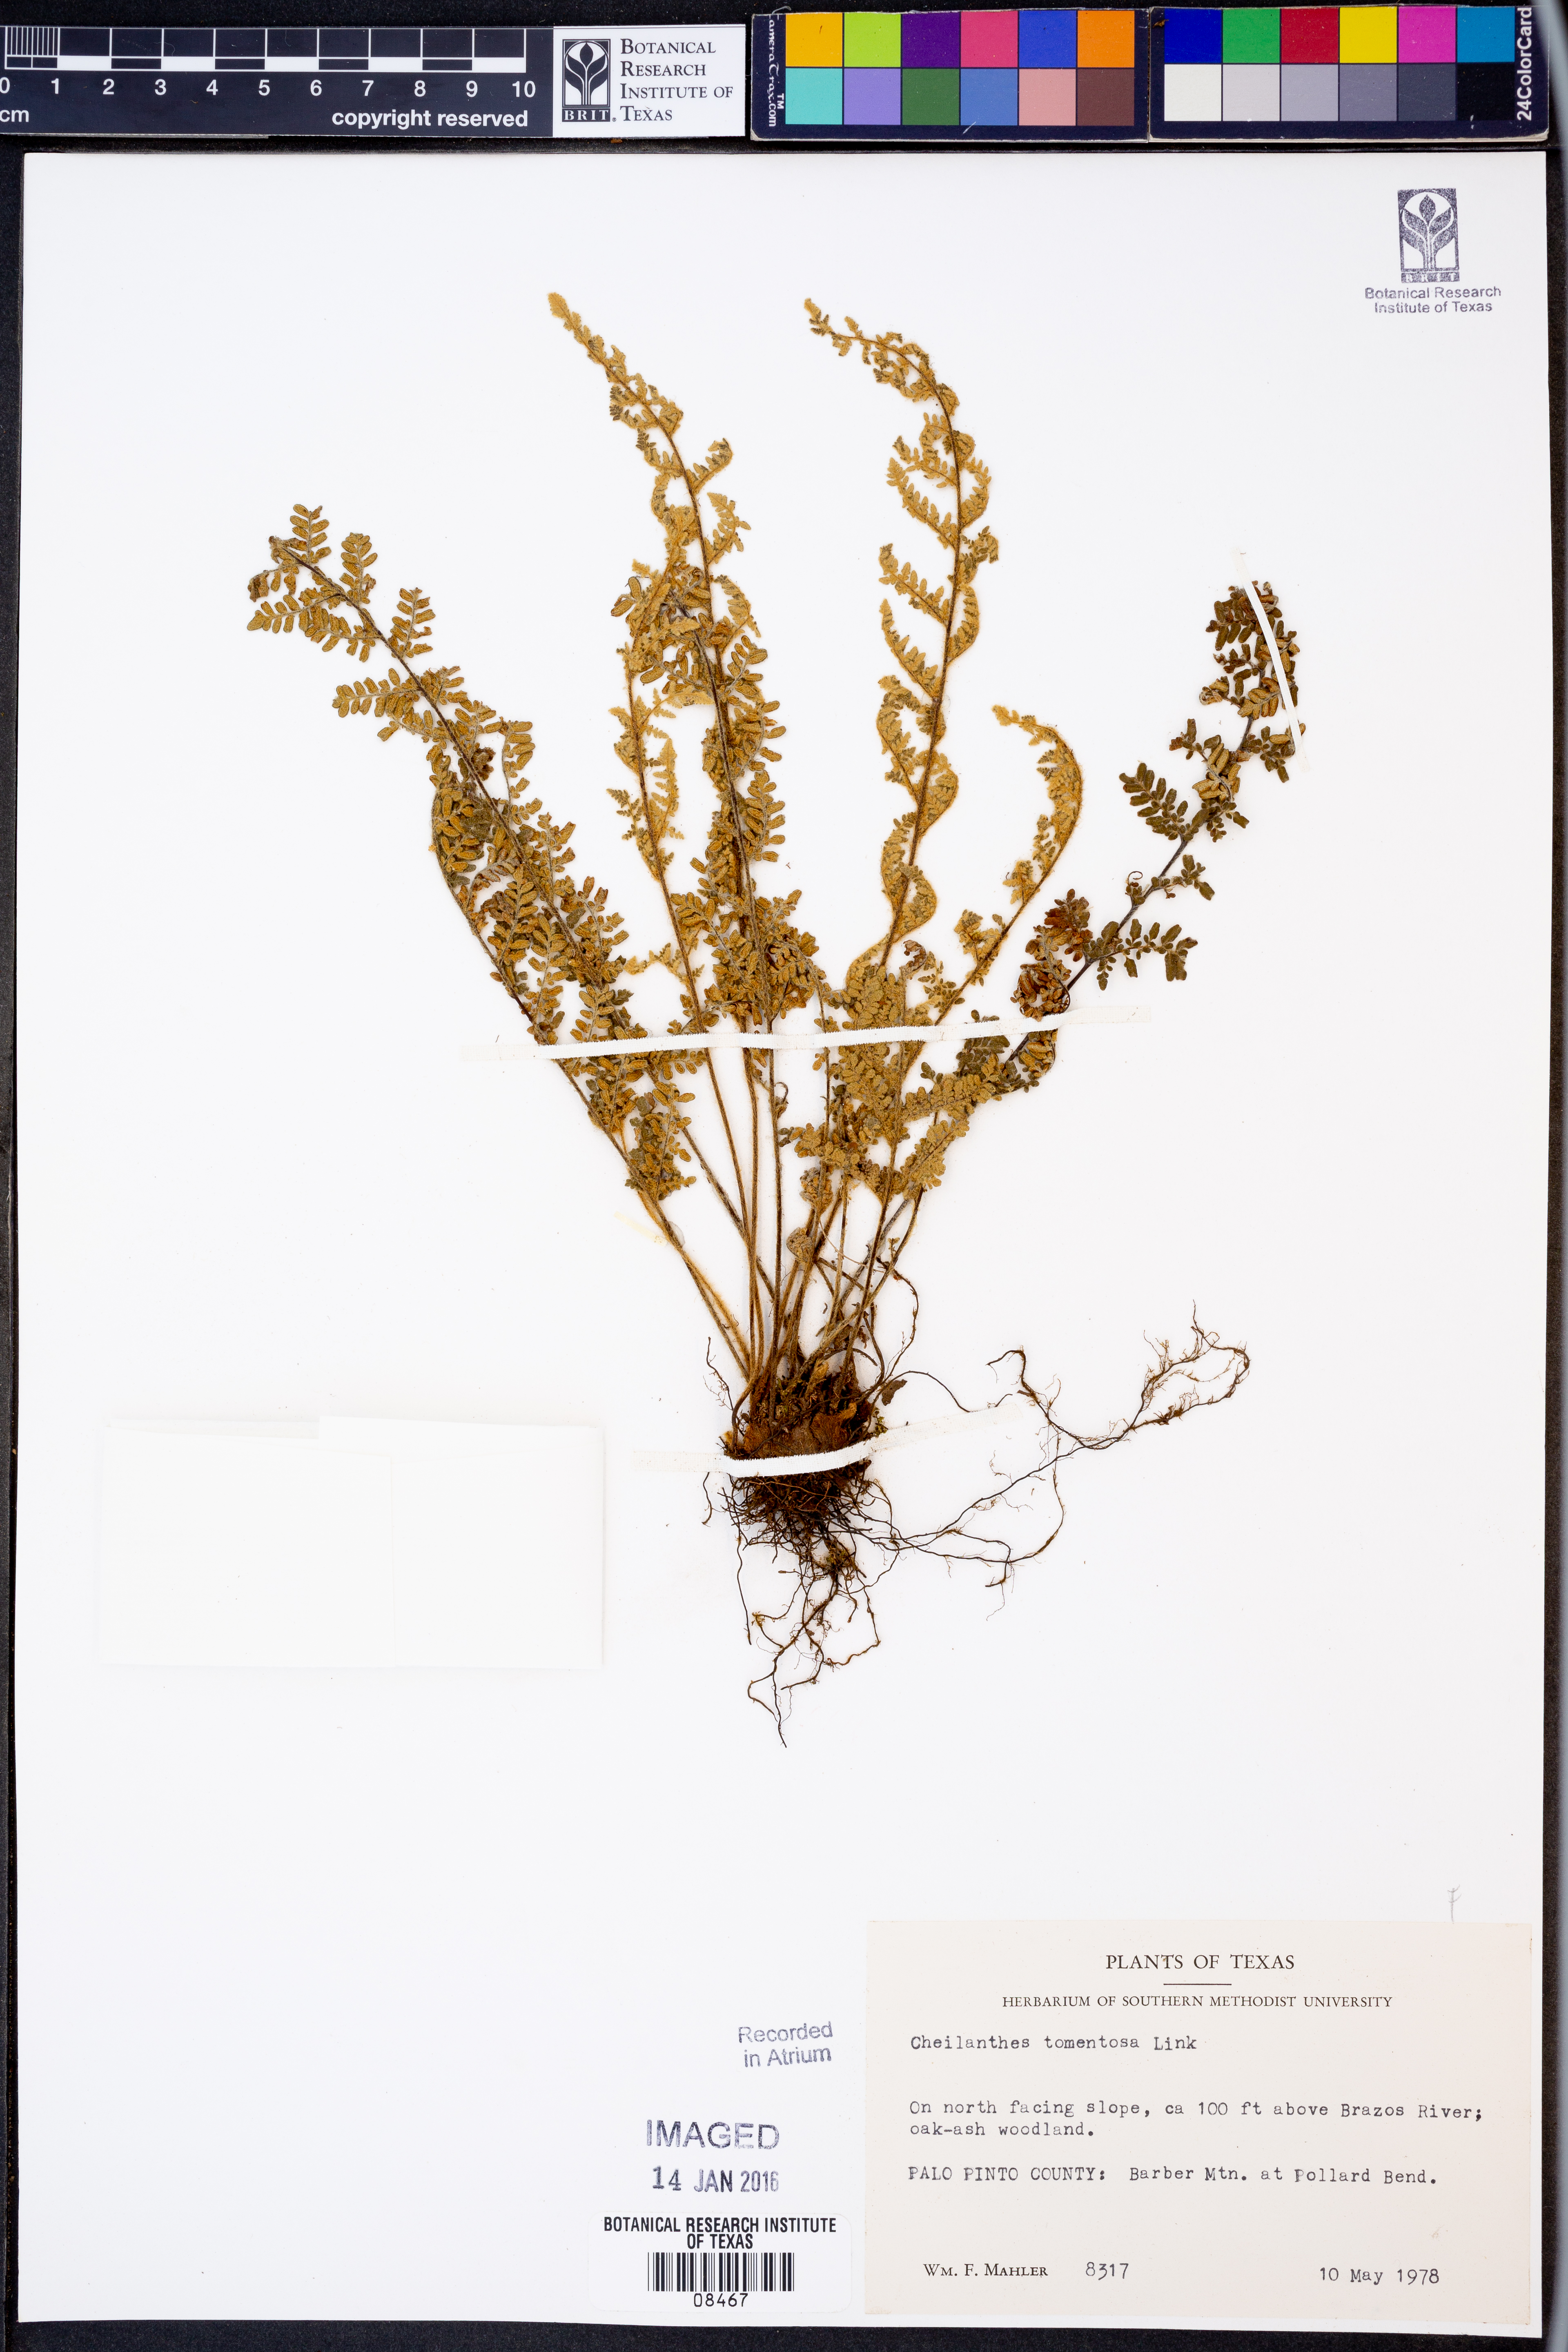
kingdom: Plantae
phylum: Tracheophyta
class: Polypodiopsida
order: Polypodiales
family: Pteridaceae
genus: Myriopteris
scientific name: Myriopteris tomentosa
